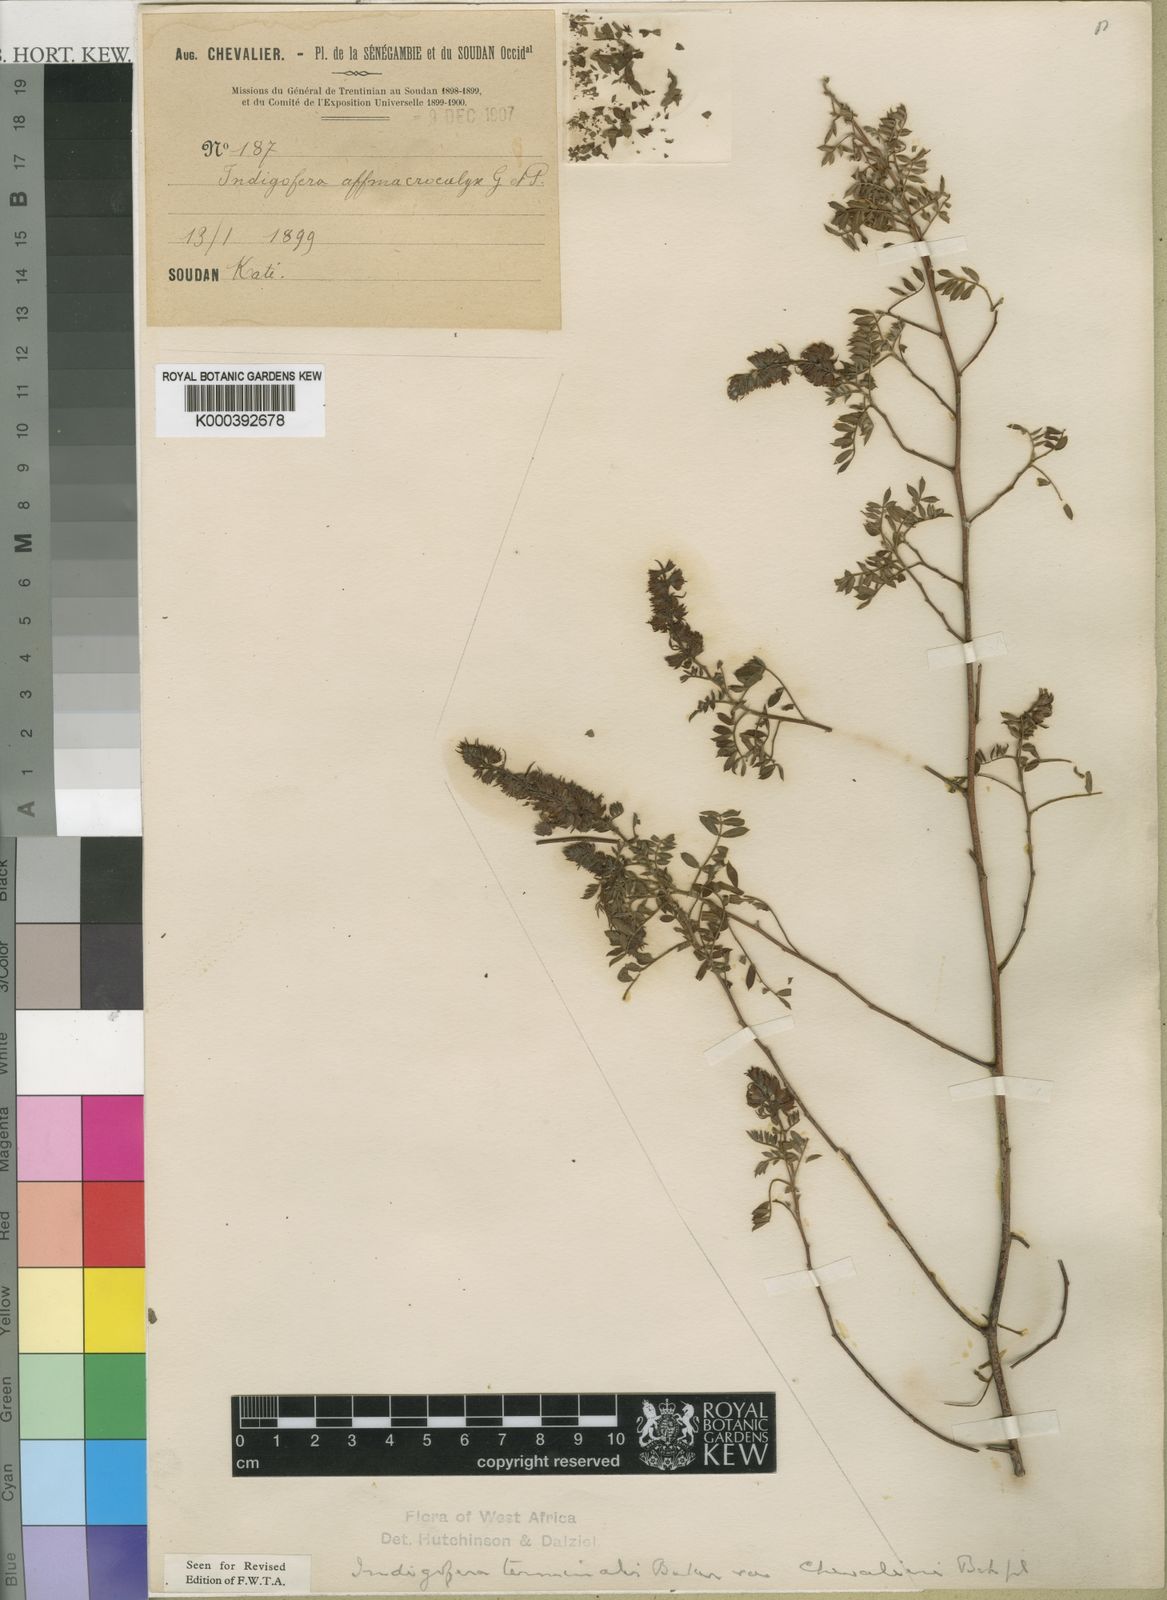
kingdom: Plantae
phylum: Tracheophyta
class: Magnoliopsida
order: Fabales
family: Fabaceae
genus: Indigofera
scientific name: Indigofera terminalis
